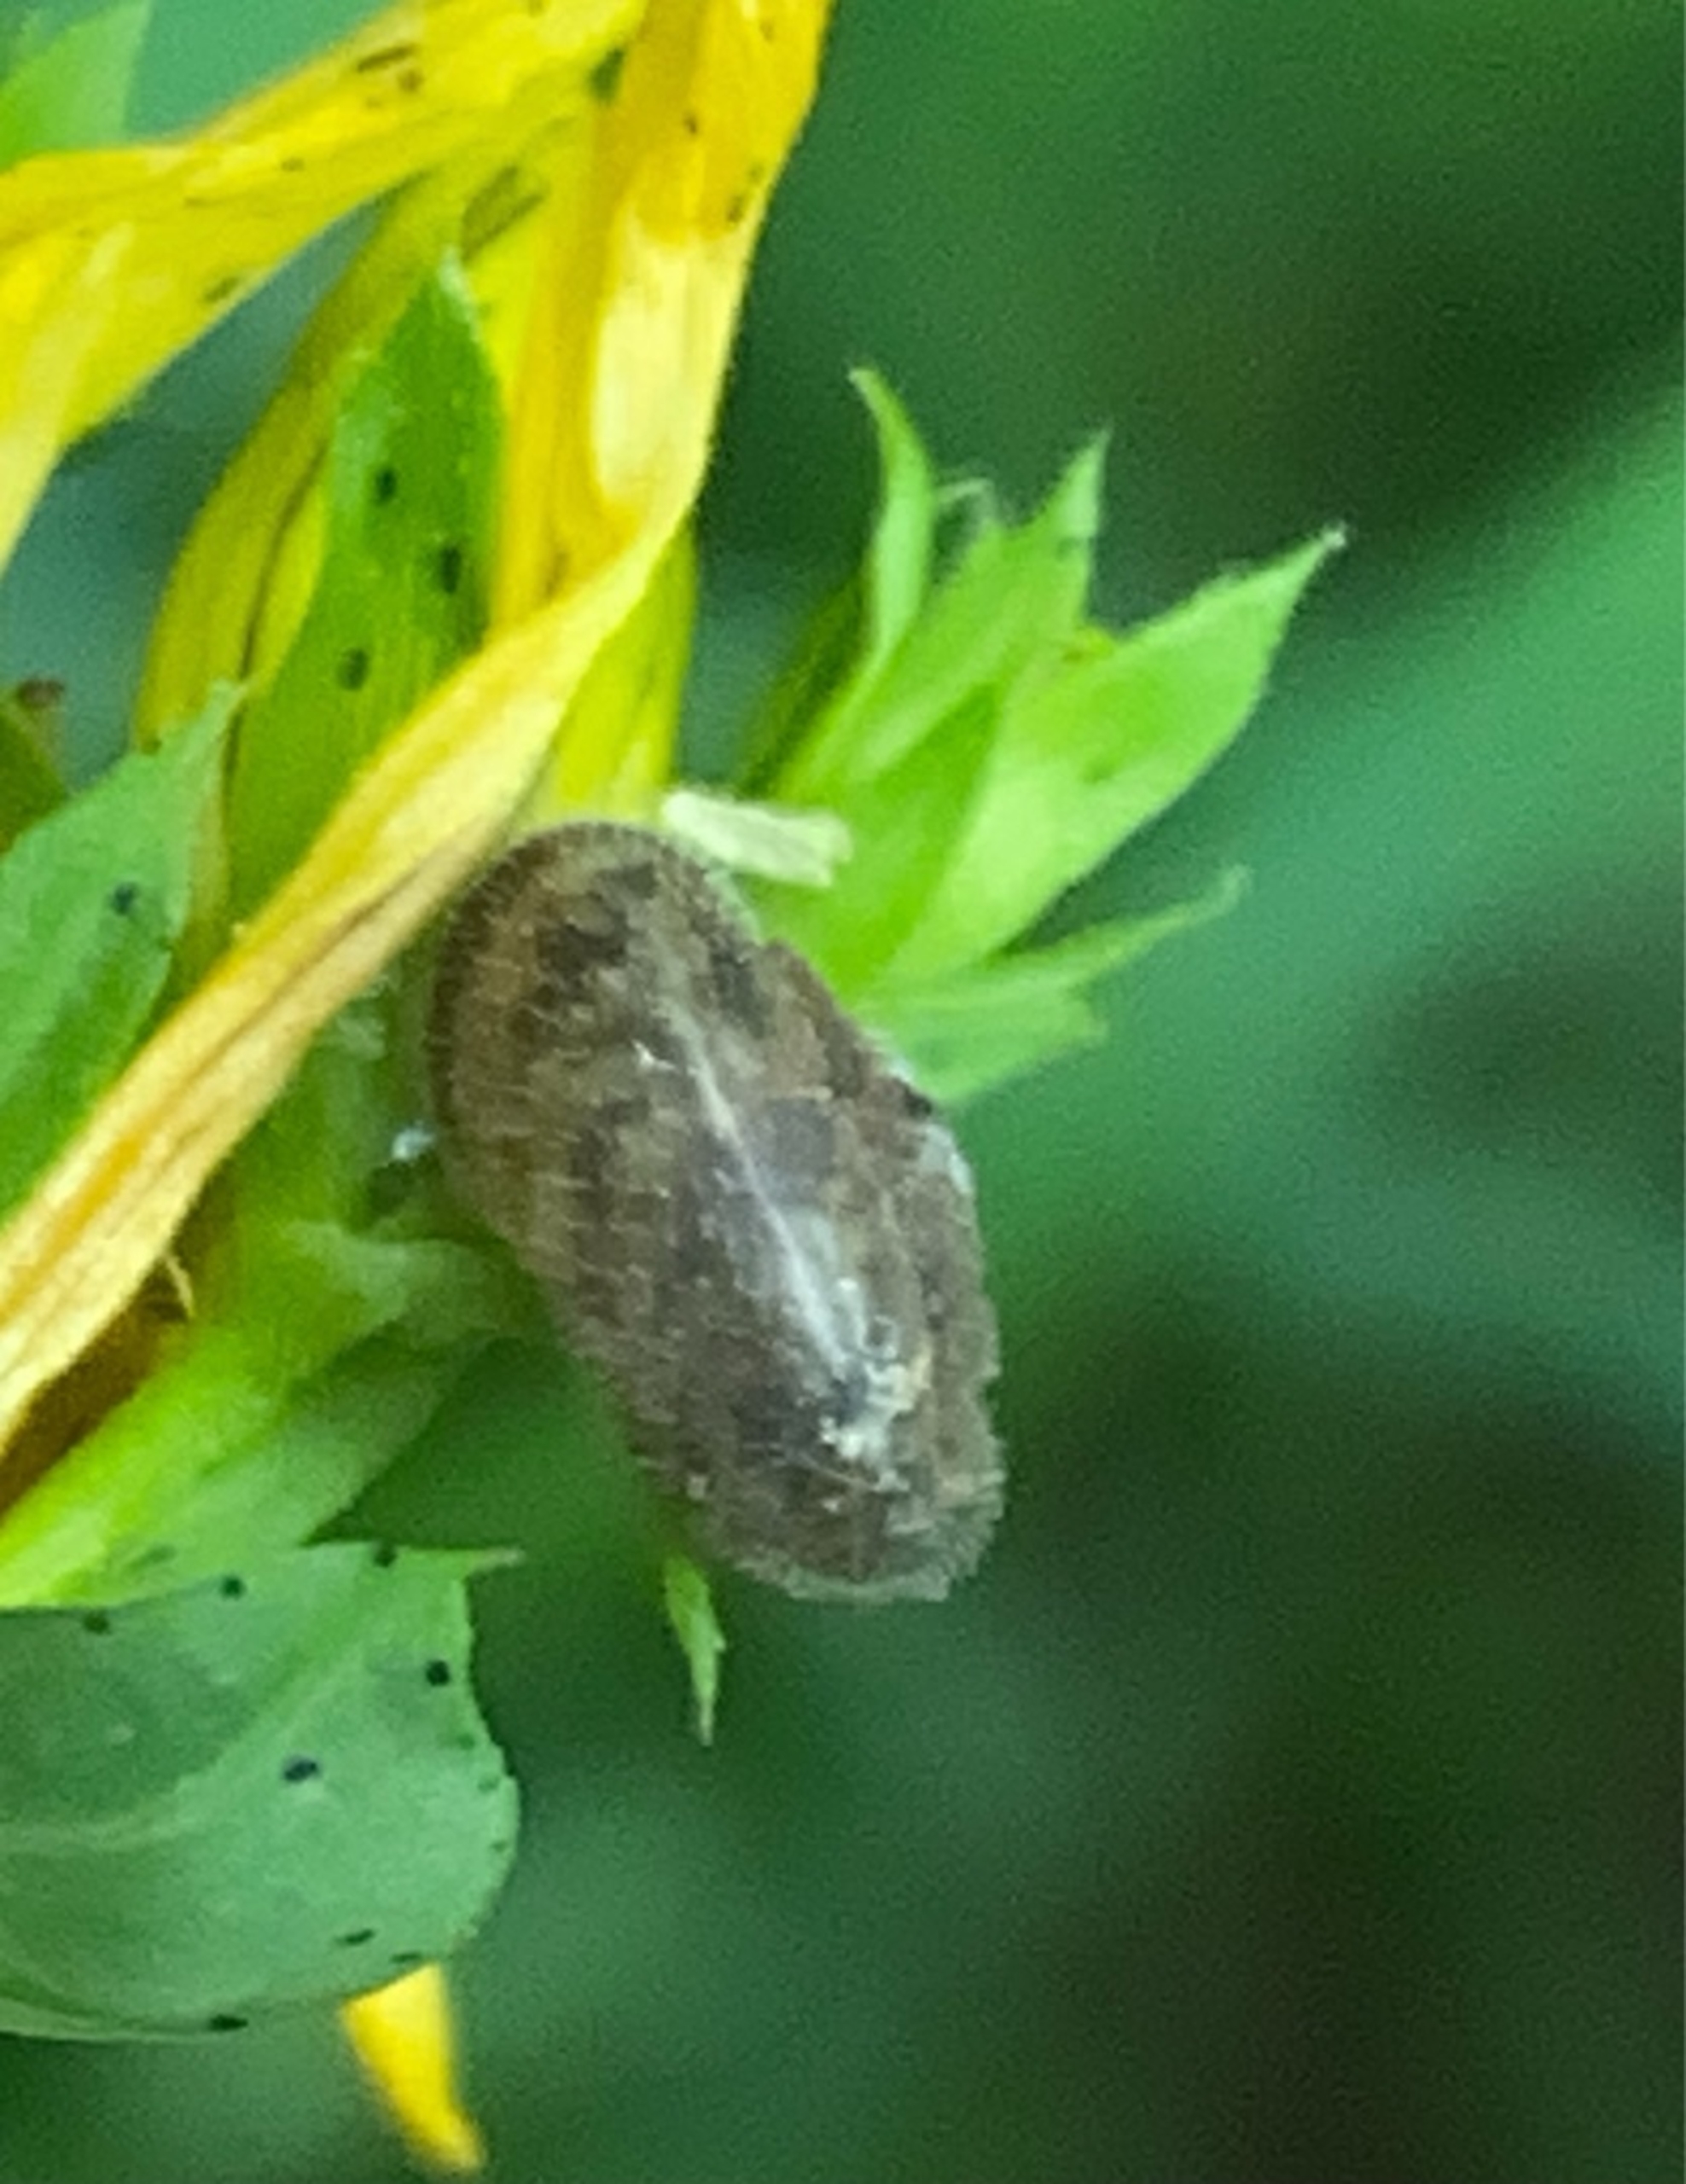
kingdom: Animalia
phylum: Mollusca
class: Gastropoda
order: Stylommatophora
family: Hygromiidae
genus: Trochulus
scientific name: Trochulus hispidus
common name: Håret snegl
